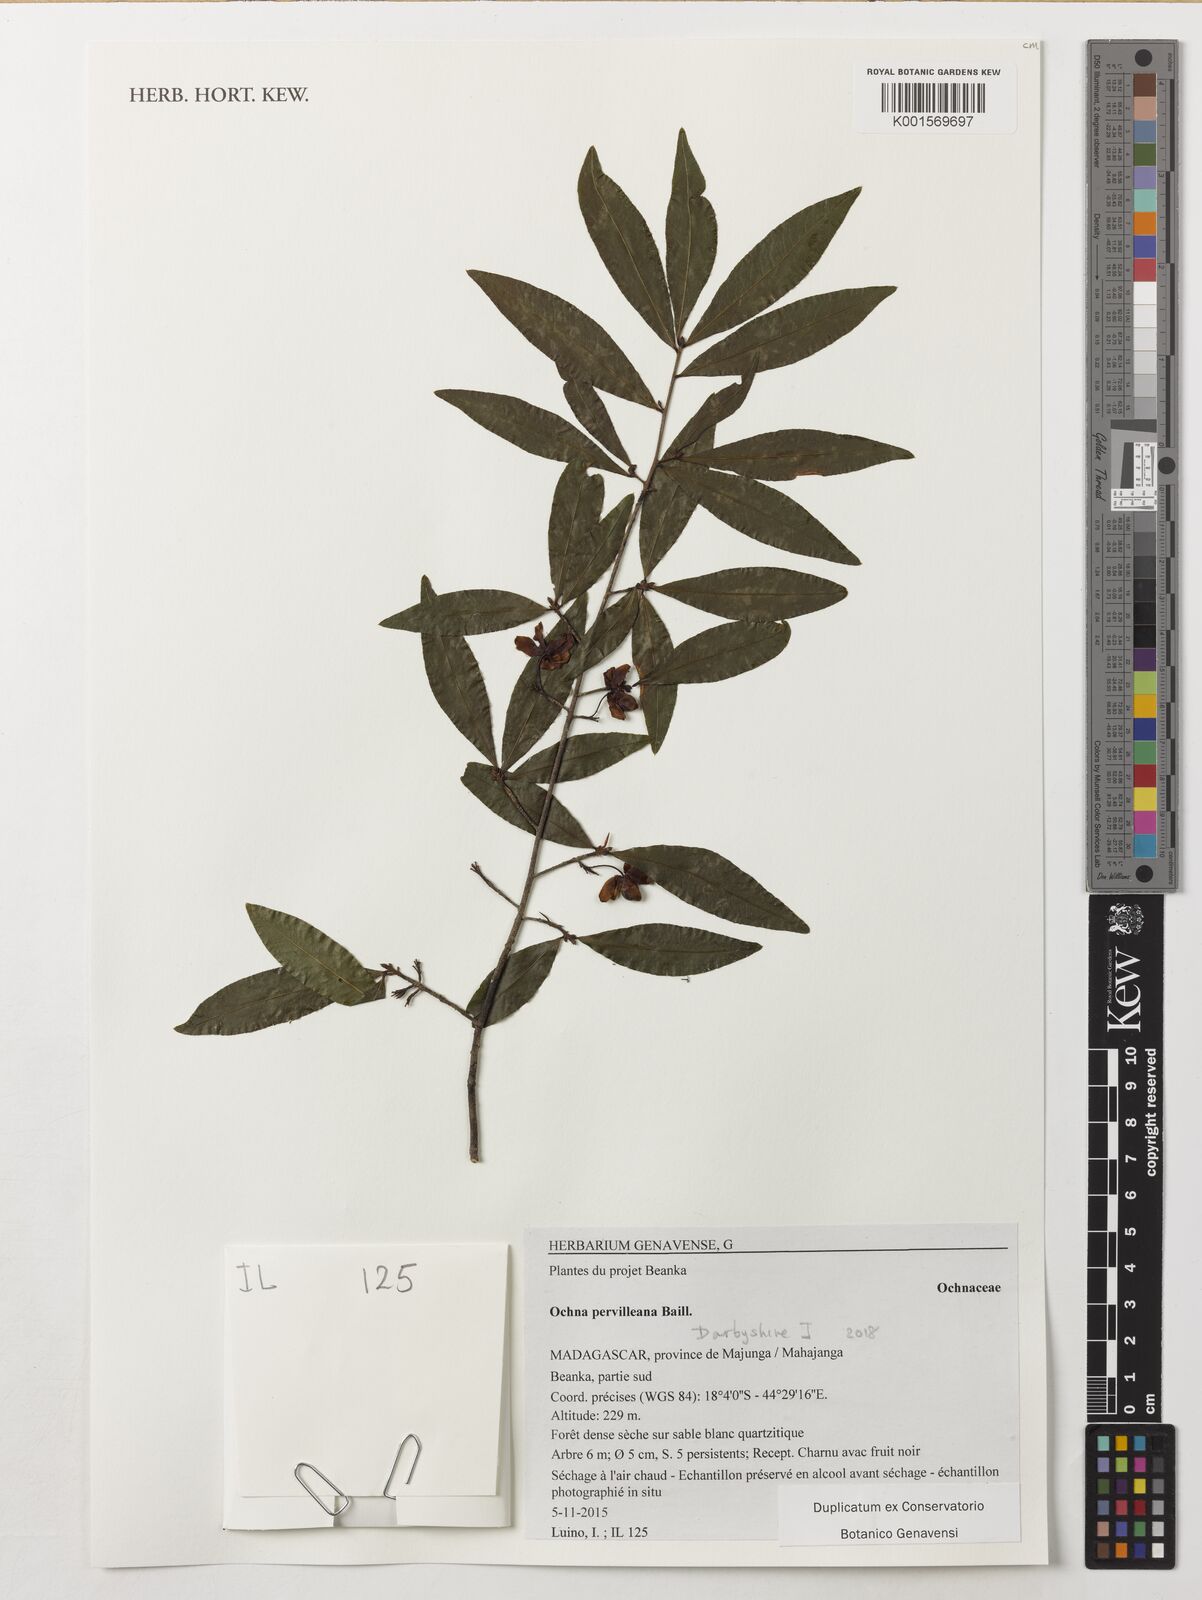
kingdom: Plantae
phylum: Tracheophyta
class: Magnoliopsida
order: Malpighiales
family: Ochnaceae
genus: Ochna
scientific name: Ochna pervilleana
